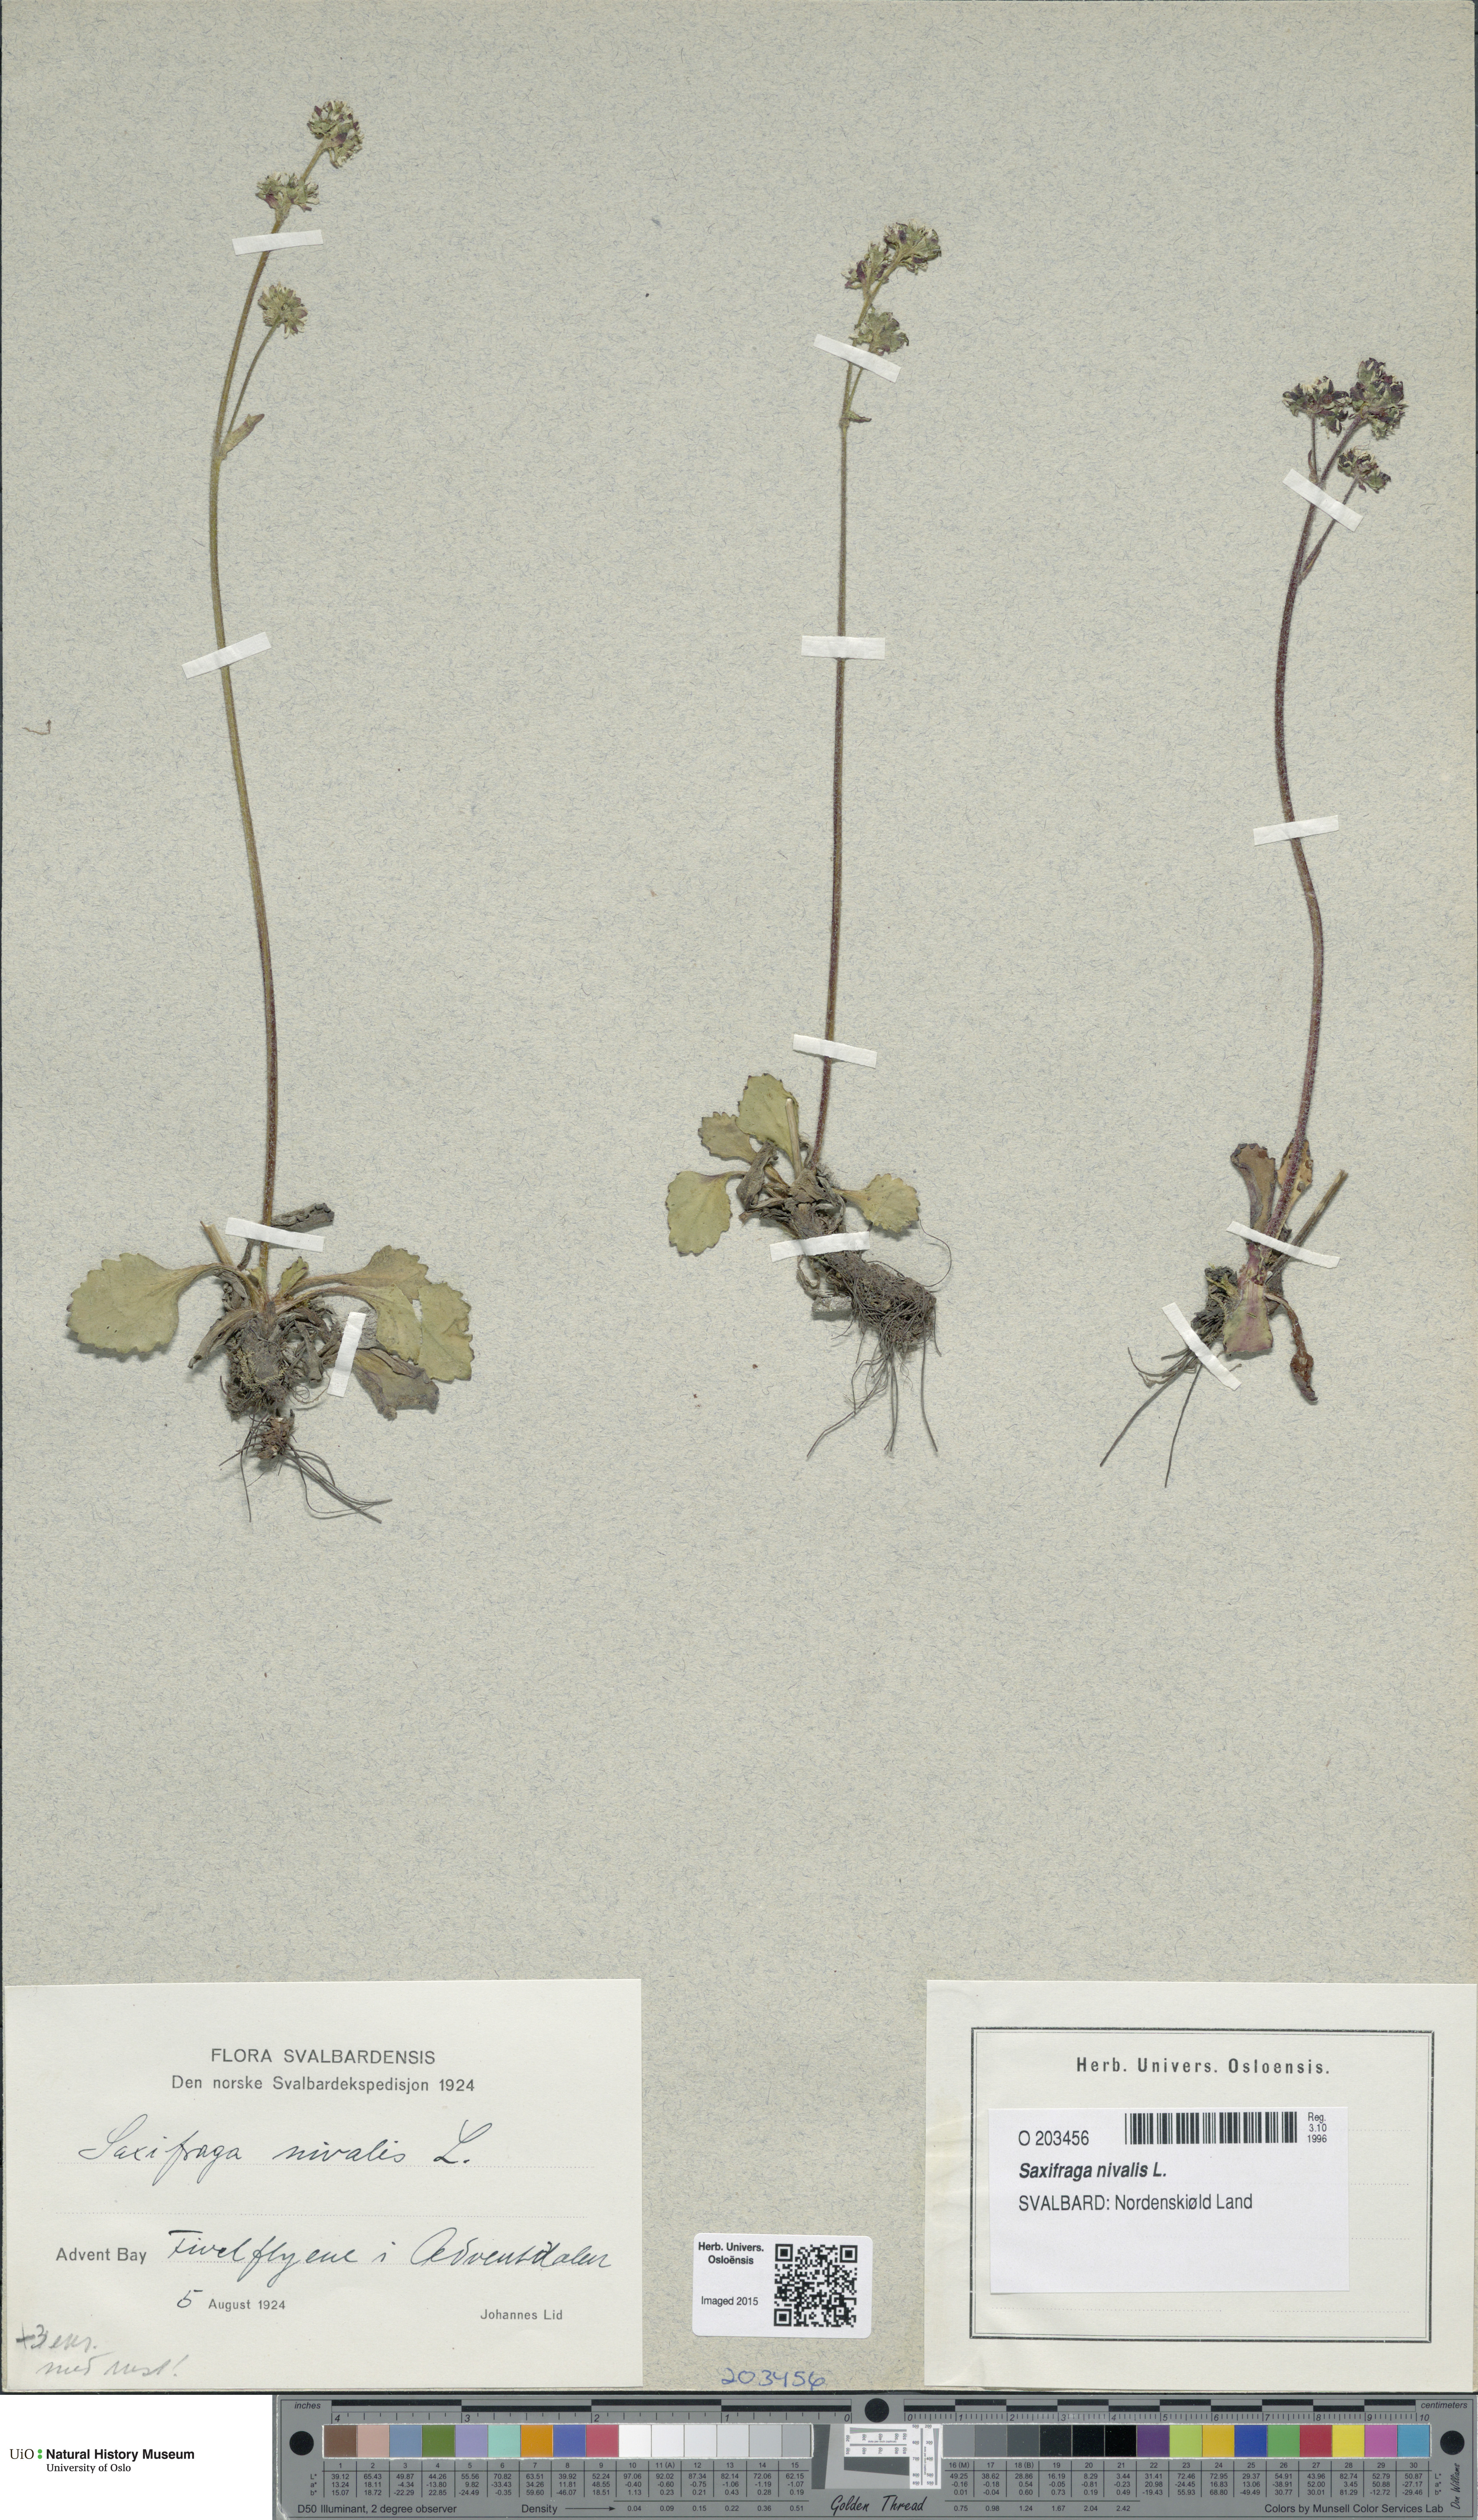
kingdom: Plantae
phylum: Tracheophyta
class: Magnoliopsida
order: Saxifragales
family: Saxifragaceae
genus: Micranthes
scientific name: Micranthes nivalis
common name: Alpine saxifrage
